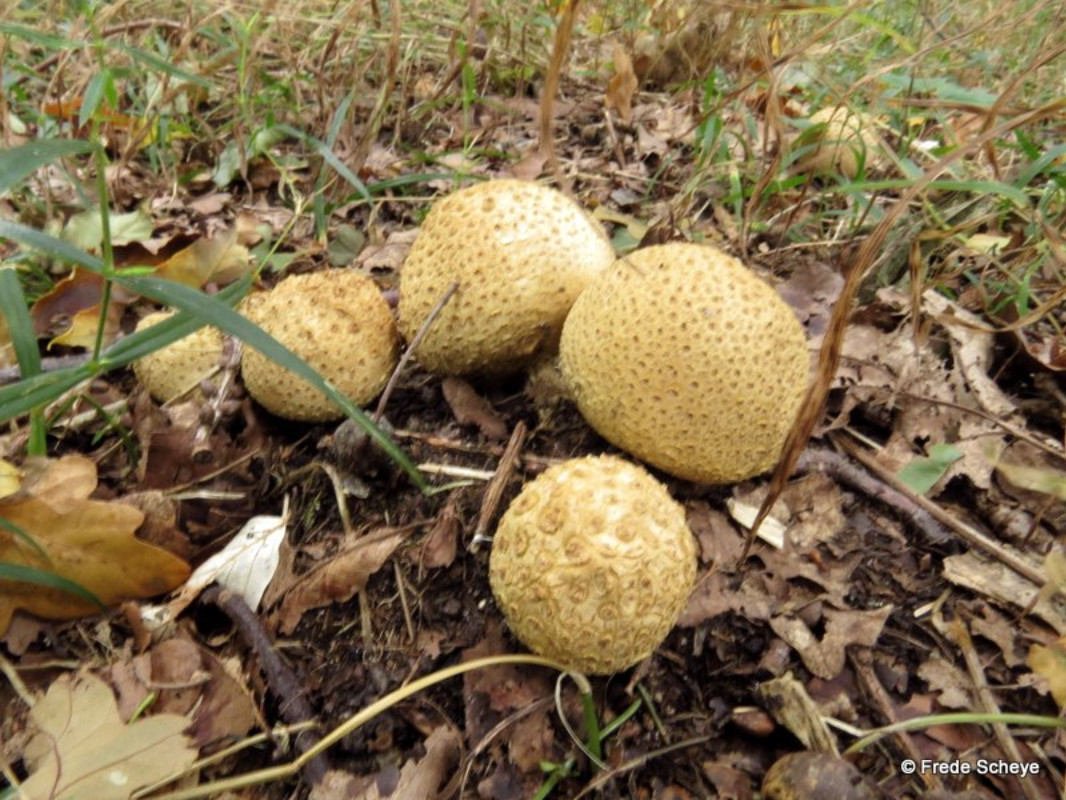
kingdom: Fungi
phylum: Basidiomycota
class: Agaricomycetes
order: Boletales
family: Sclerodermataceae
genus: Scleroderma
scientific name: Scleroderma citrinum
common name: almindelig bruskbold
